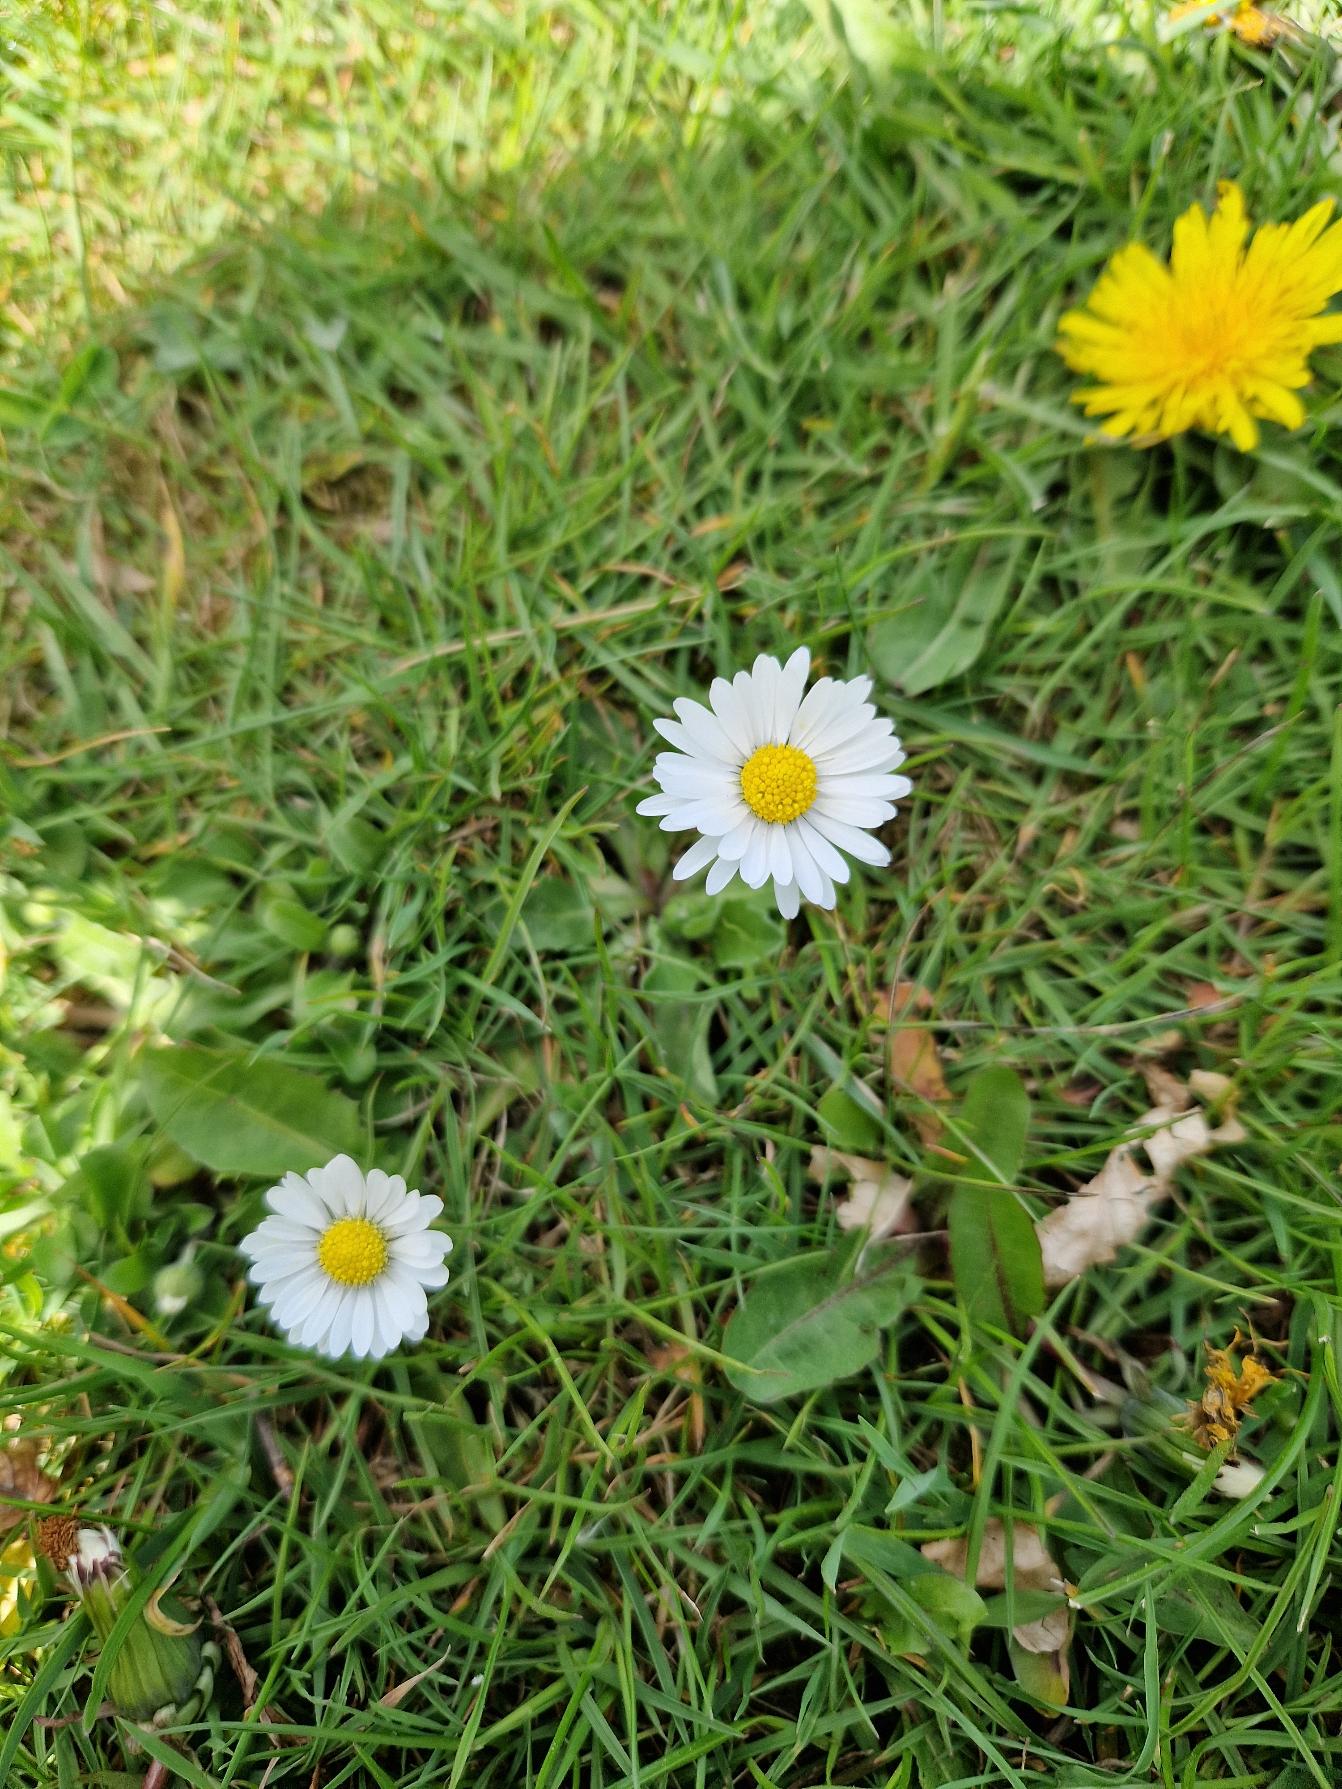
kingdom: Plantae
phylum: Tracheophyta
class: Magnoliopsida
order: Asterales
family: Asteraceae
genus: Bellis
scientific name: Bellis perennis
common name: Tusindfryd
